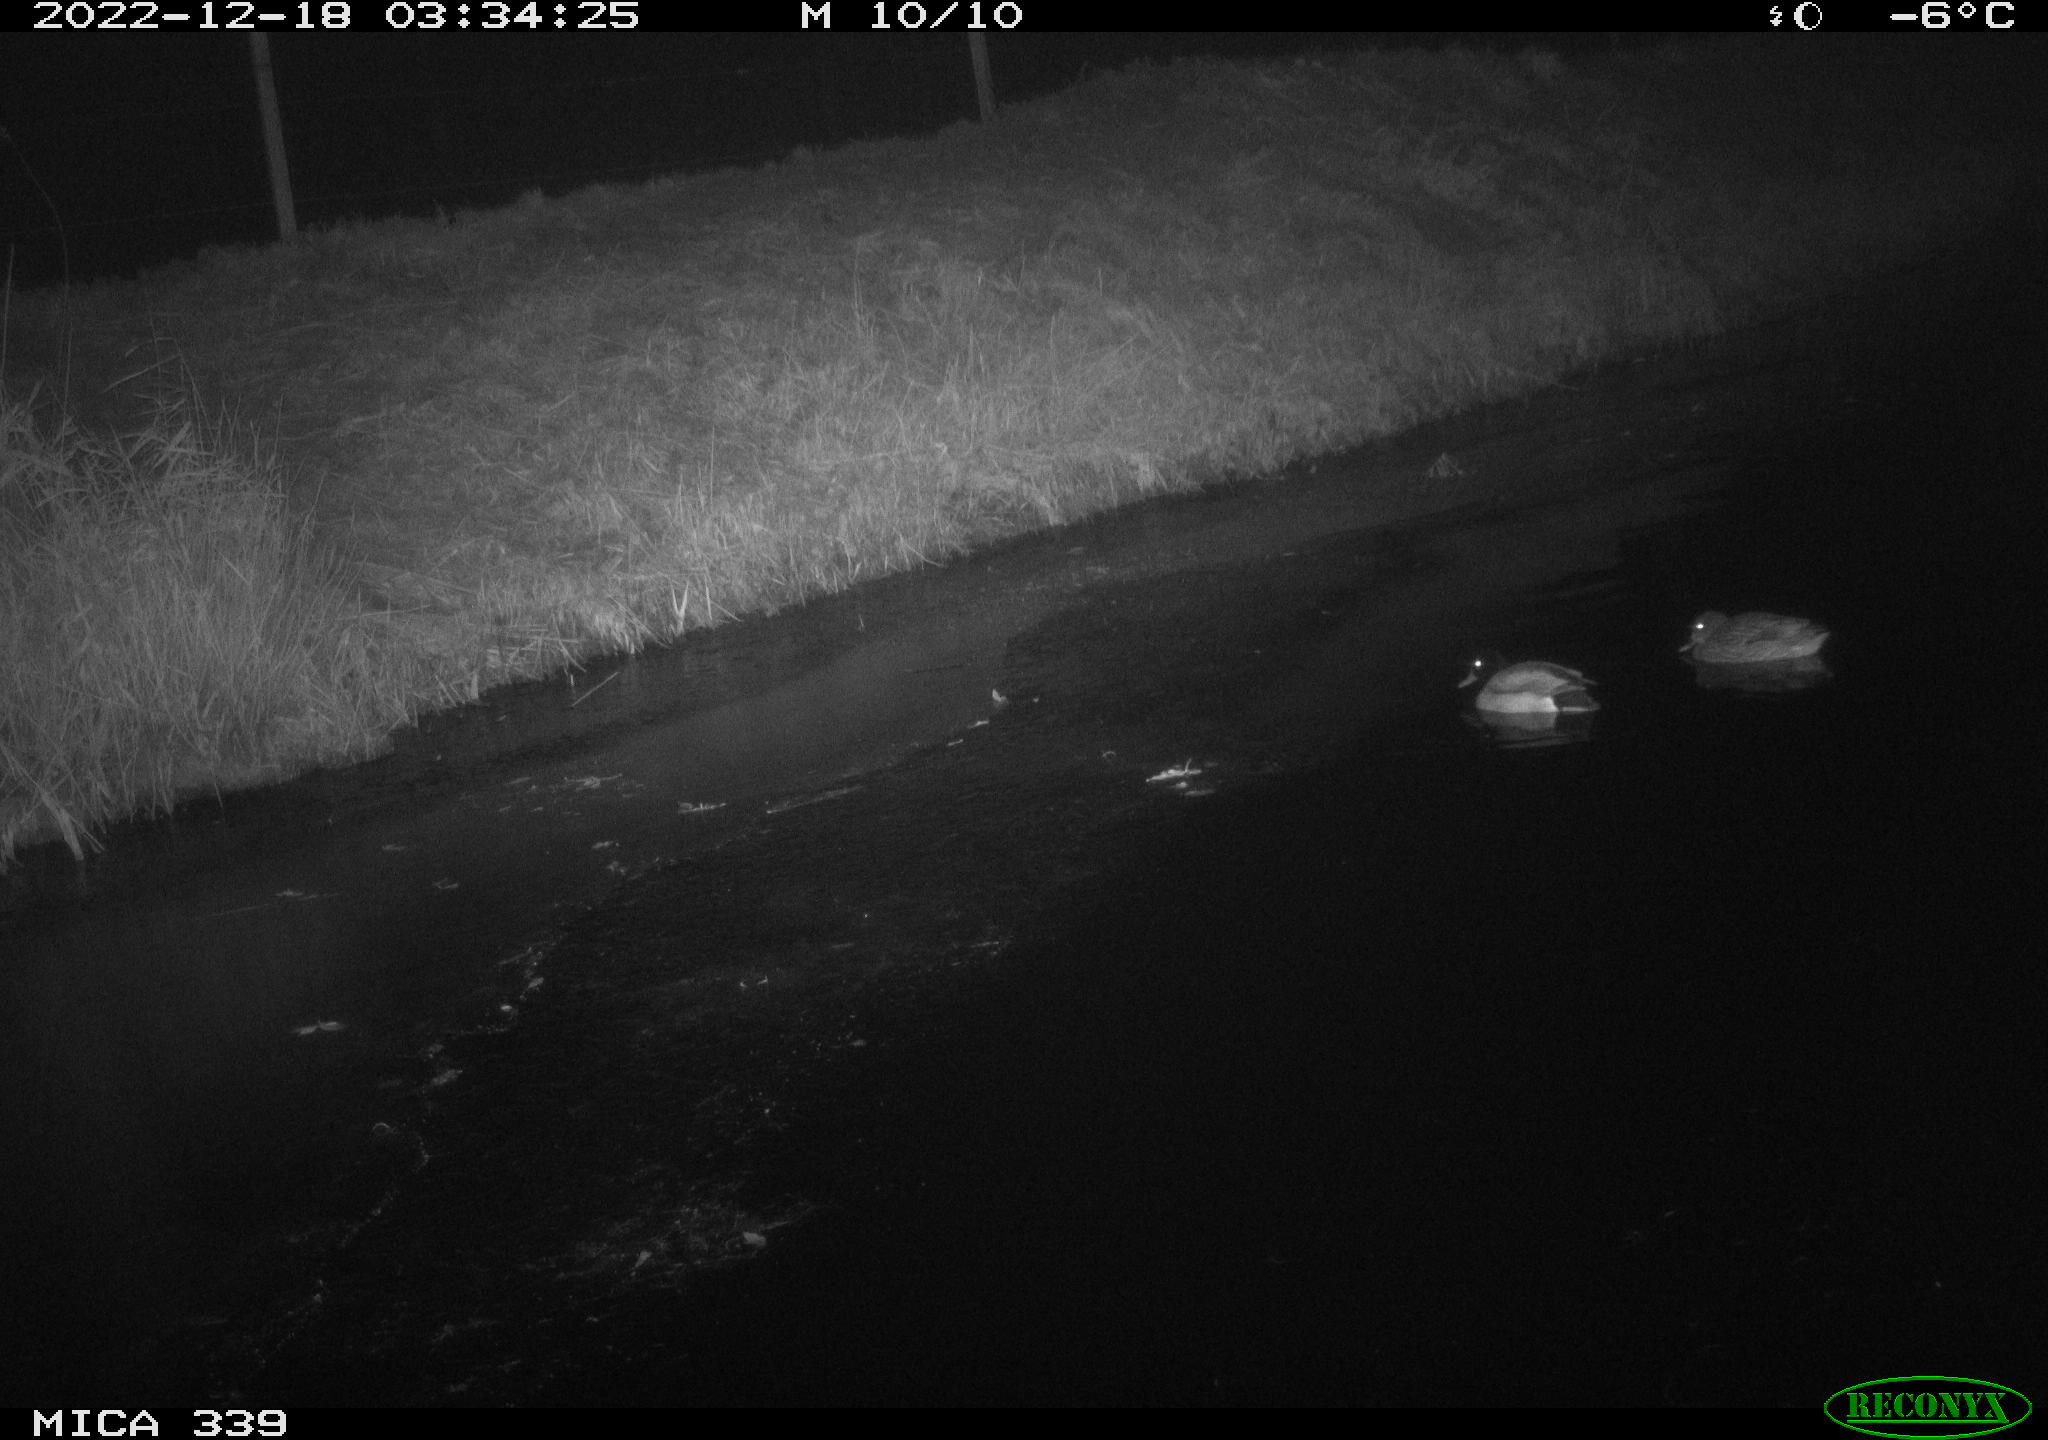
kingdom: Animalia
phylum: Chordata
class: Aves
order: Anseriformes
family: Anatidae
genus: Anas
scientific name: Anas
